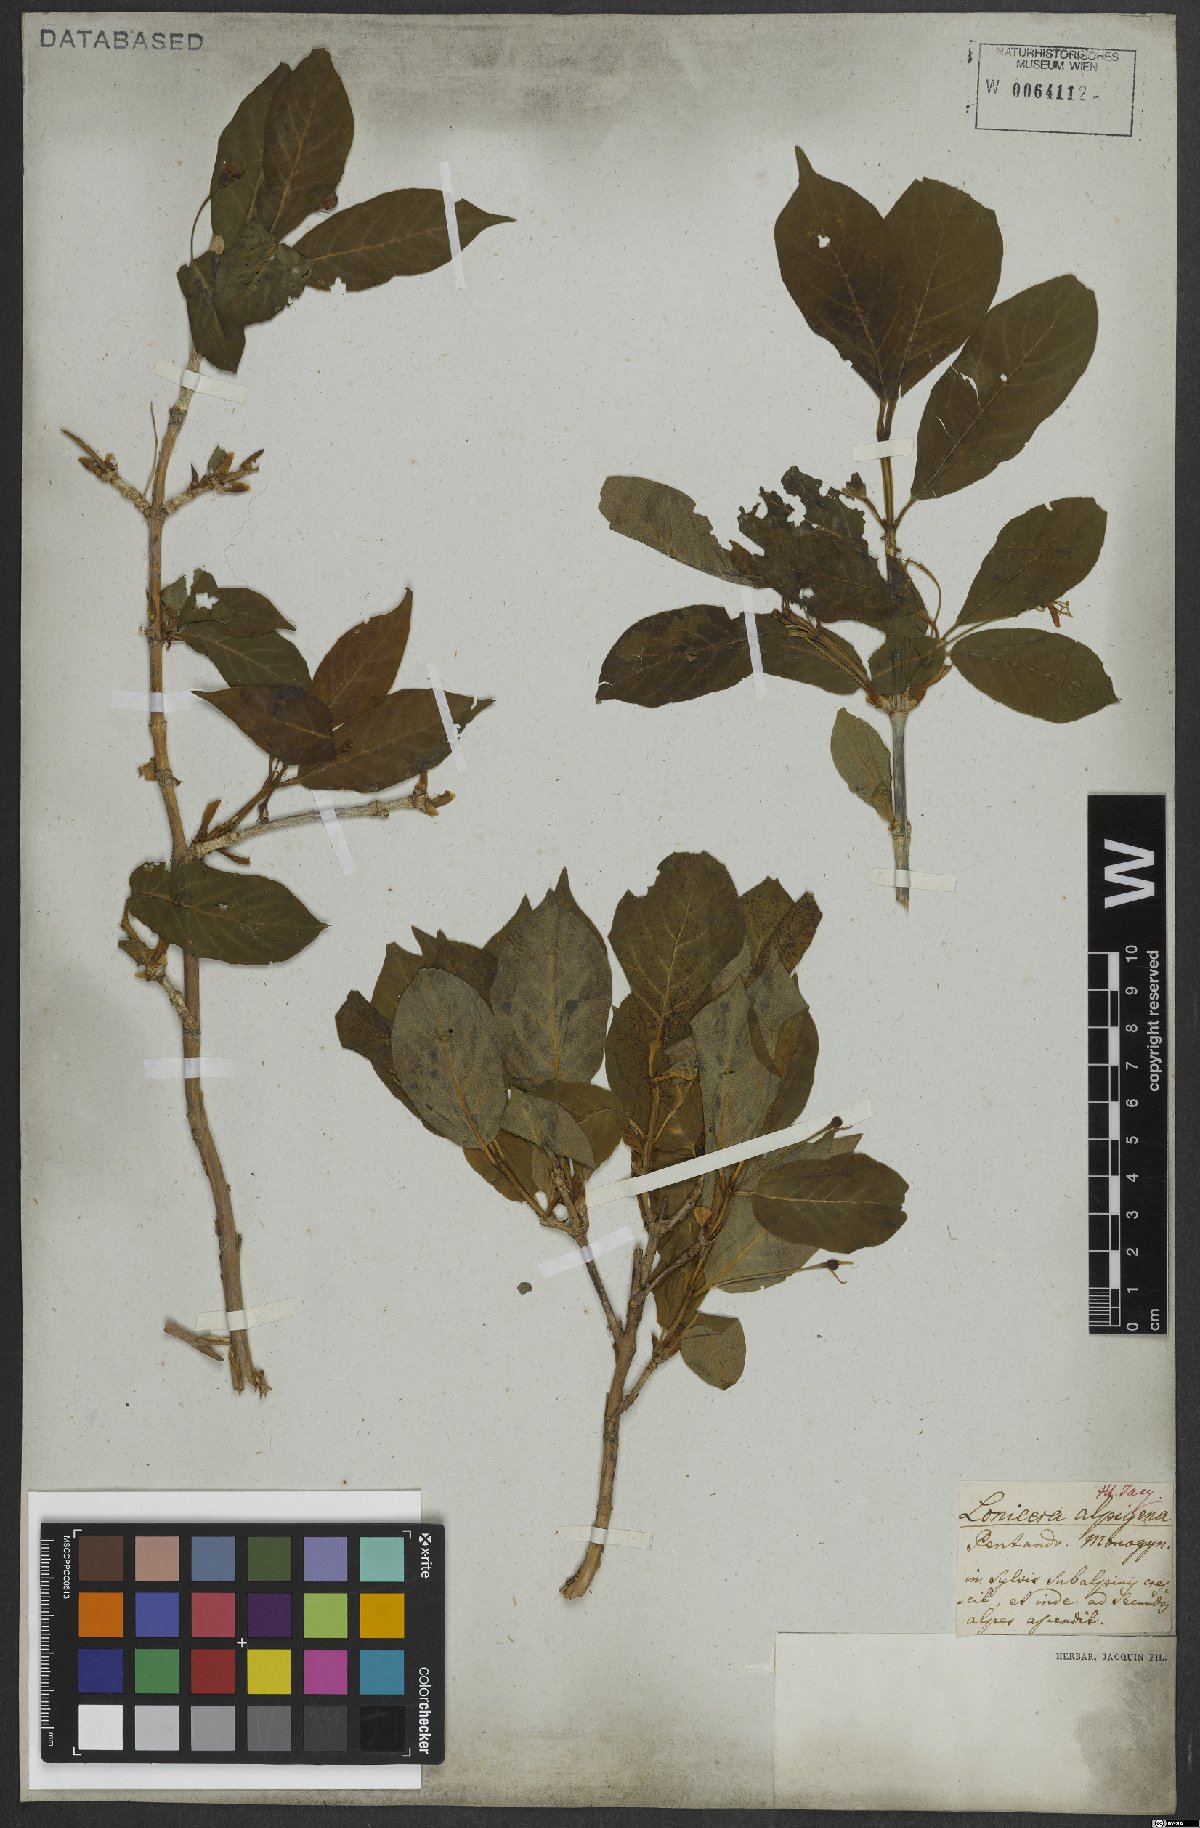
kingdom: Plantae
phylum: Tracheophyta
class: Magnoliopsida
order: Dipsacales
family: Caprifoliaceae
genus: Lonicera
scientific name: Lonicera alpigena
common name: Alpine honeysuckle
